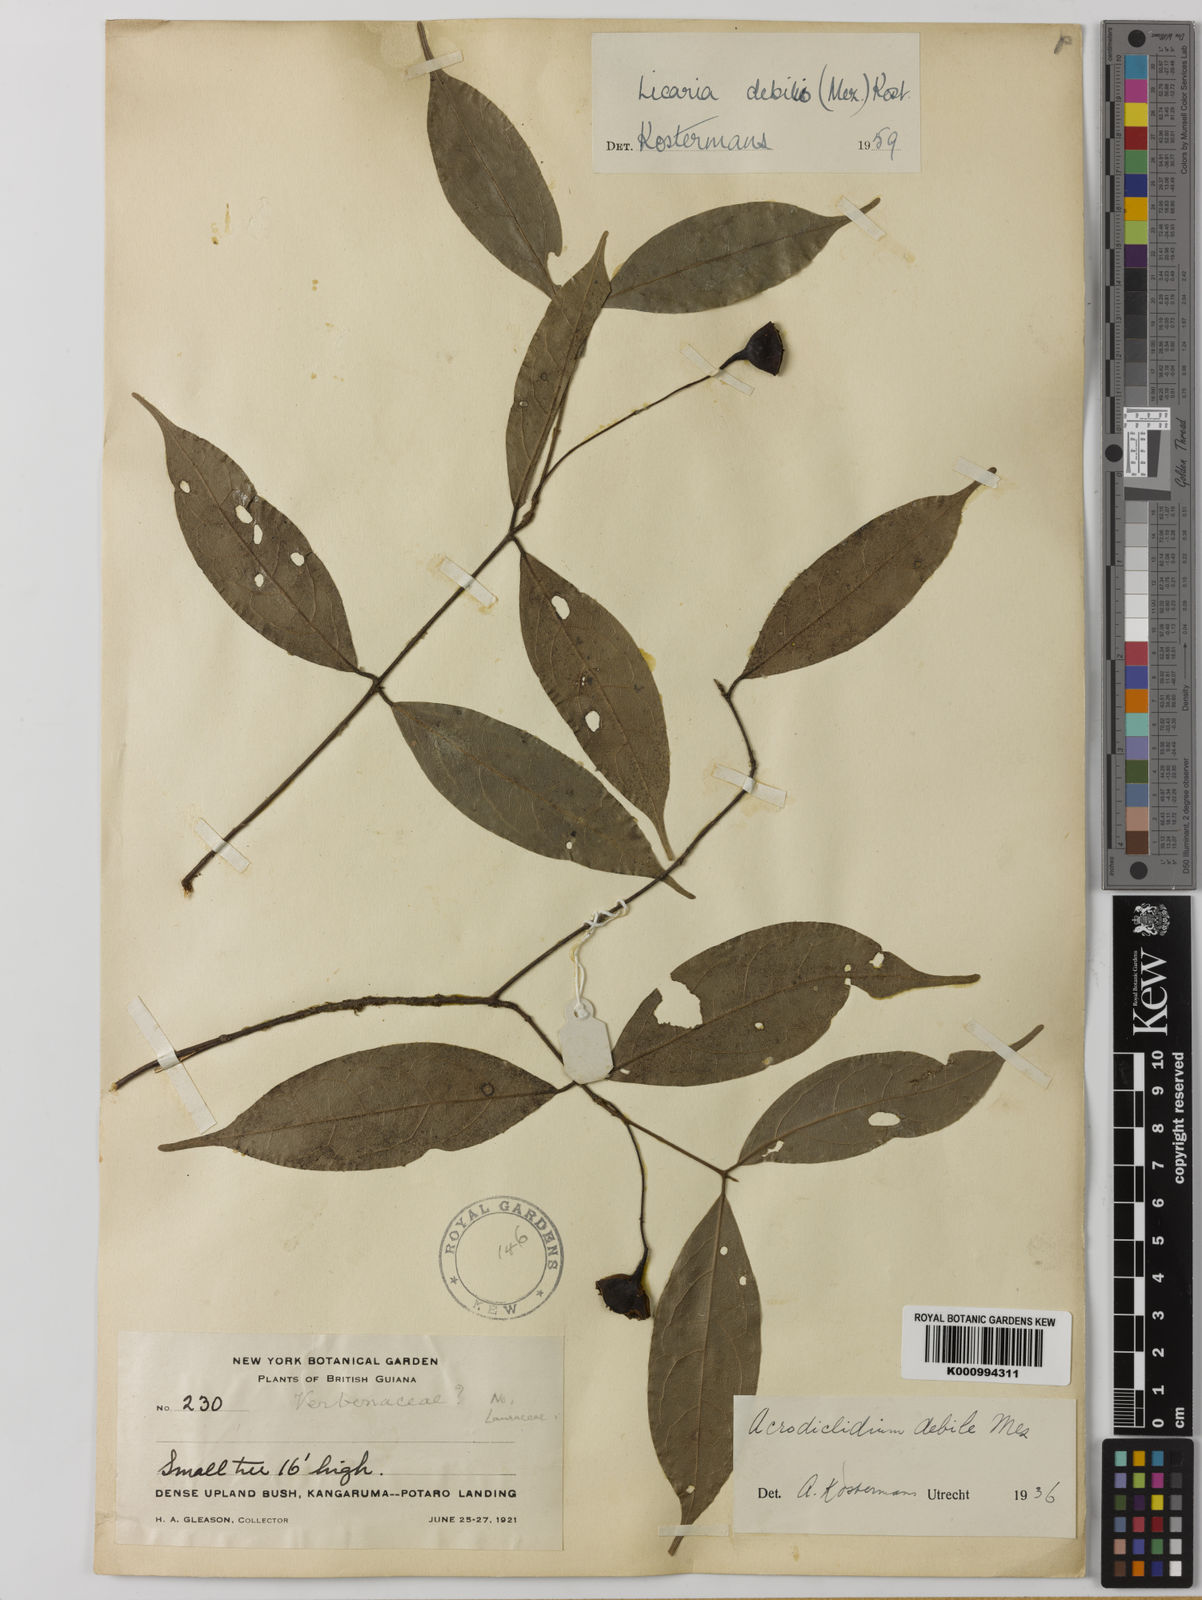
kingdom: Plantae
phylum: Tracheophyta
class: Magnoliopsida
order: Laurales
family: Lauraceae
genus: Licaria
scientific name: Licaria debilis
